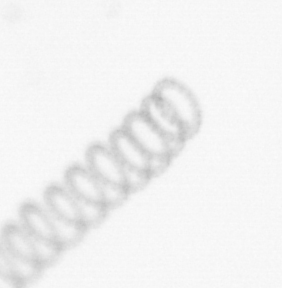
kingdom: Chromista
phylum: Ochrophyta
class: Bacillariophyceae
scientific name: Bacillariophyceae
